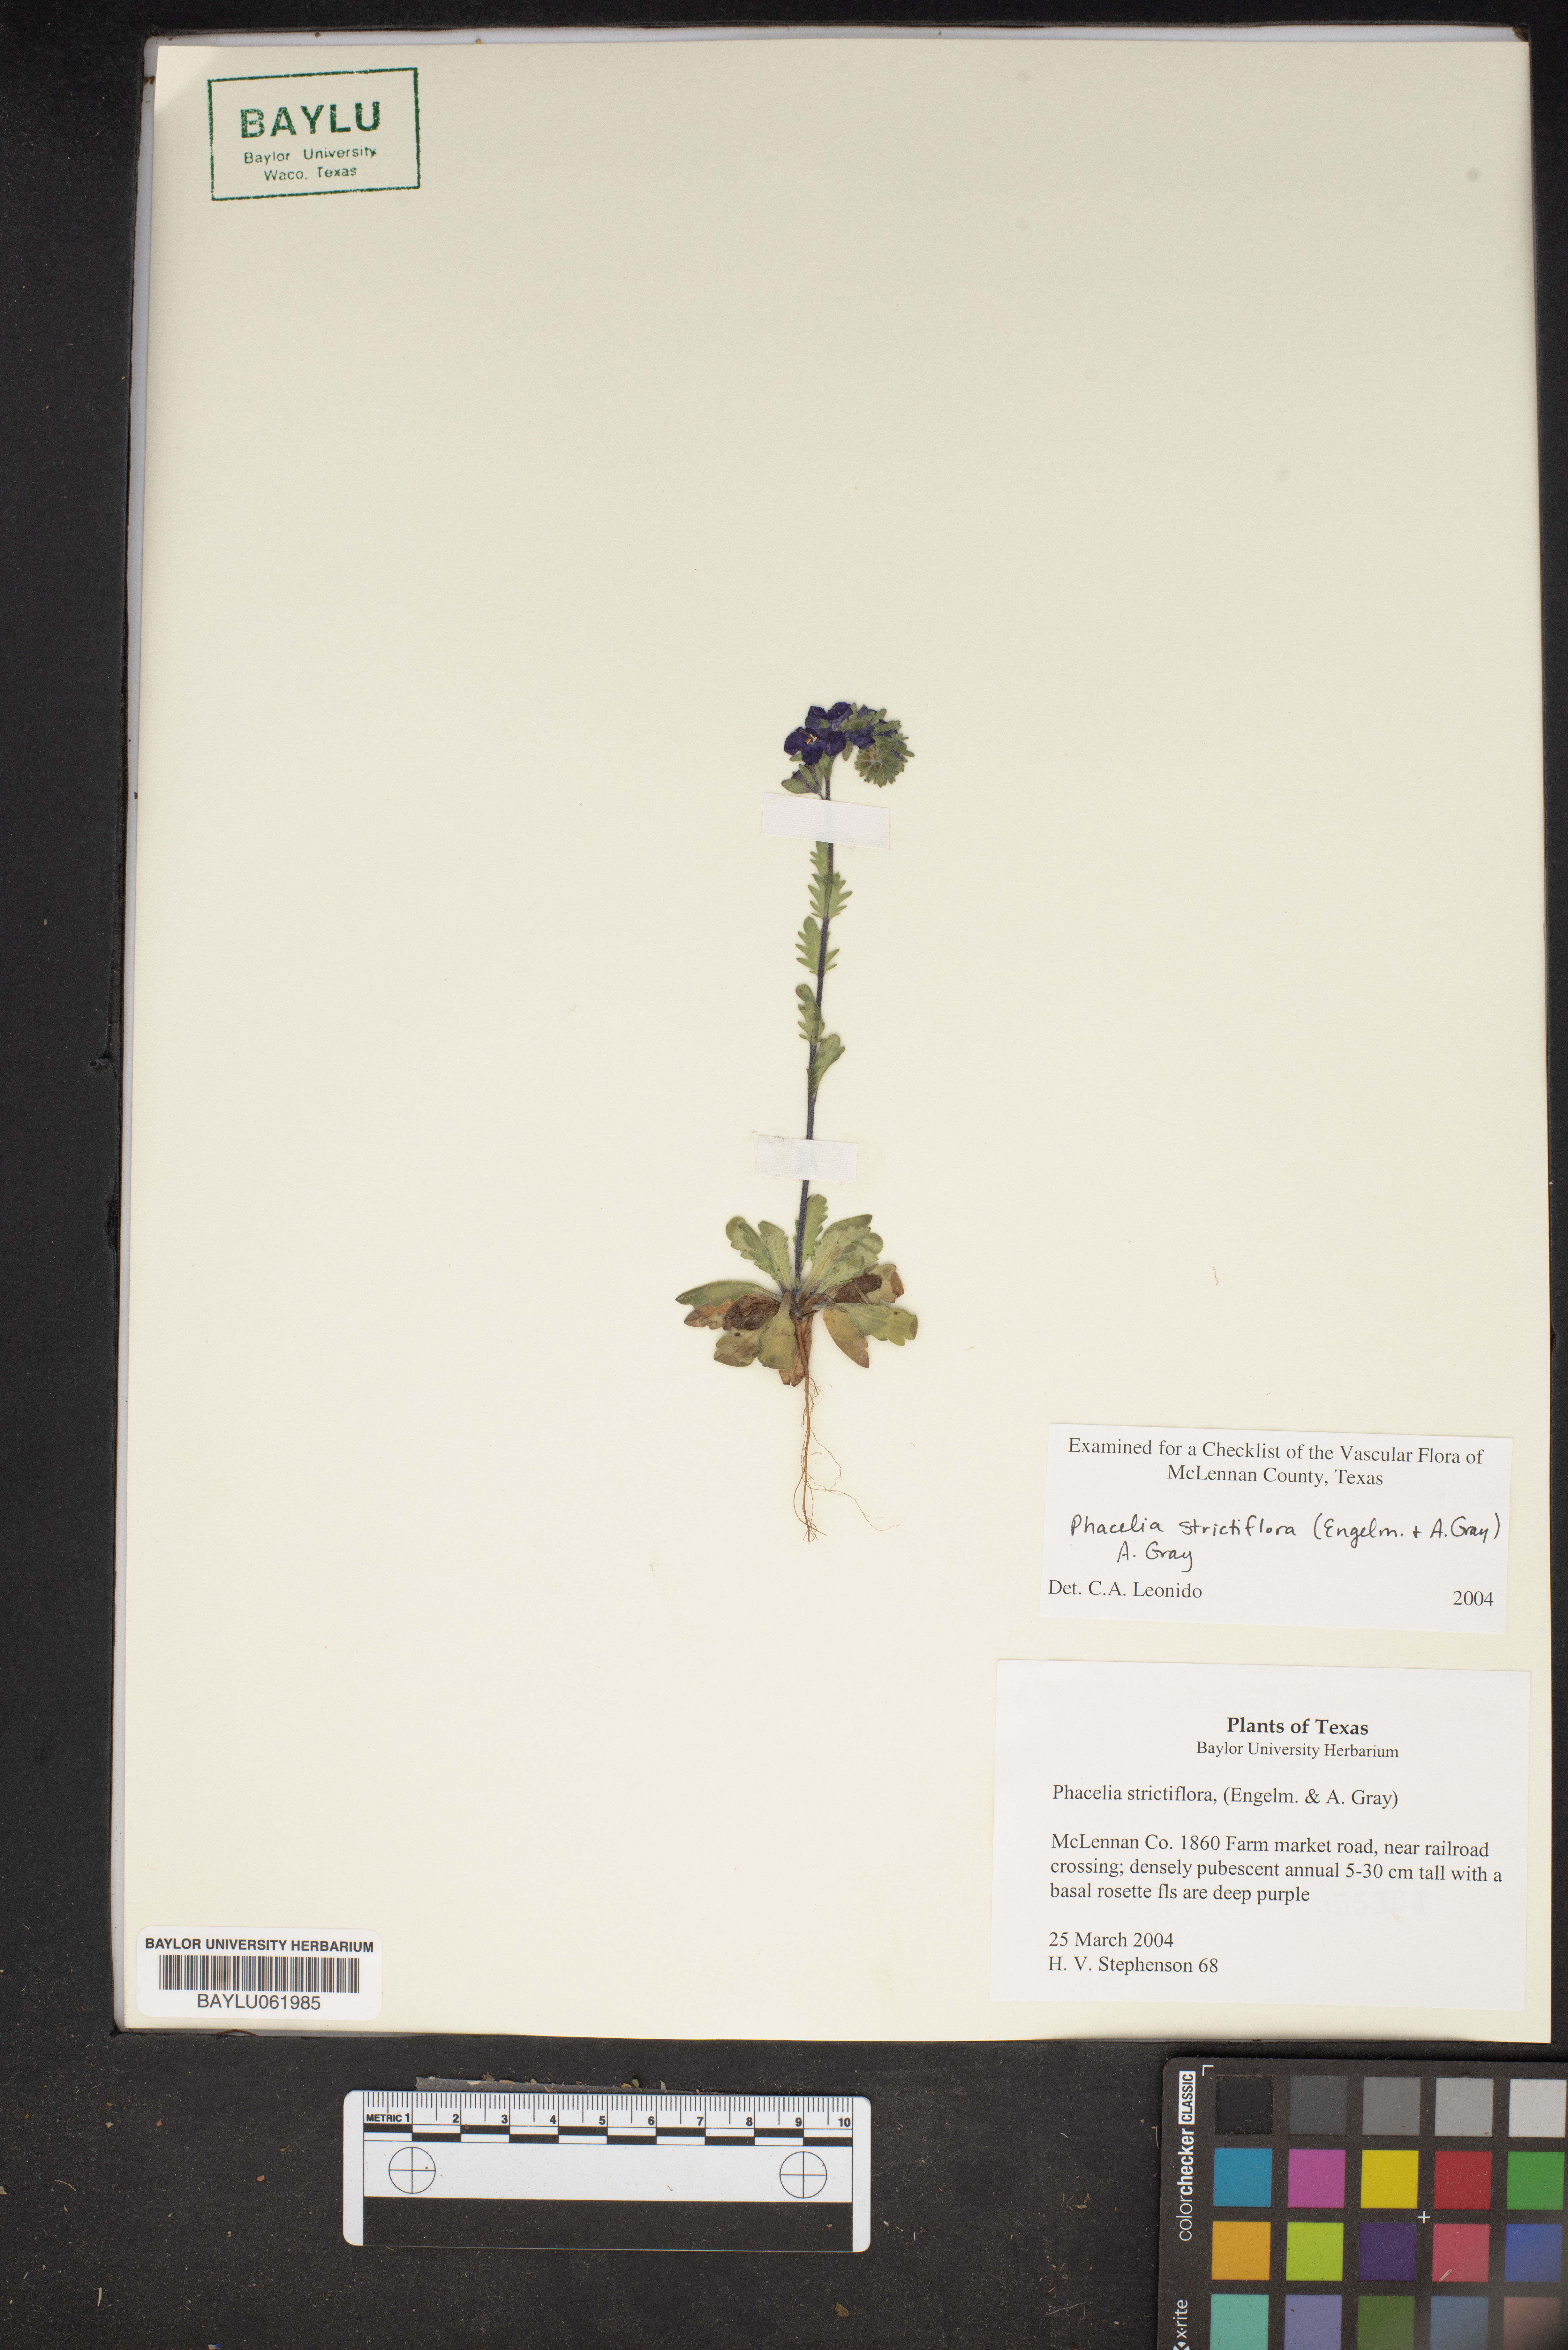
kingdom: Plantae
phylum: Tracheophyta
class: Magnoliopsida
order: Boraginales
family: Hydrophyllaceae
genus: Phacelia
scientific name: Phacelia strictiflora
